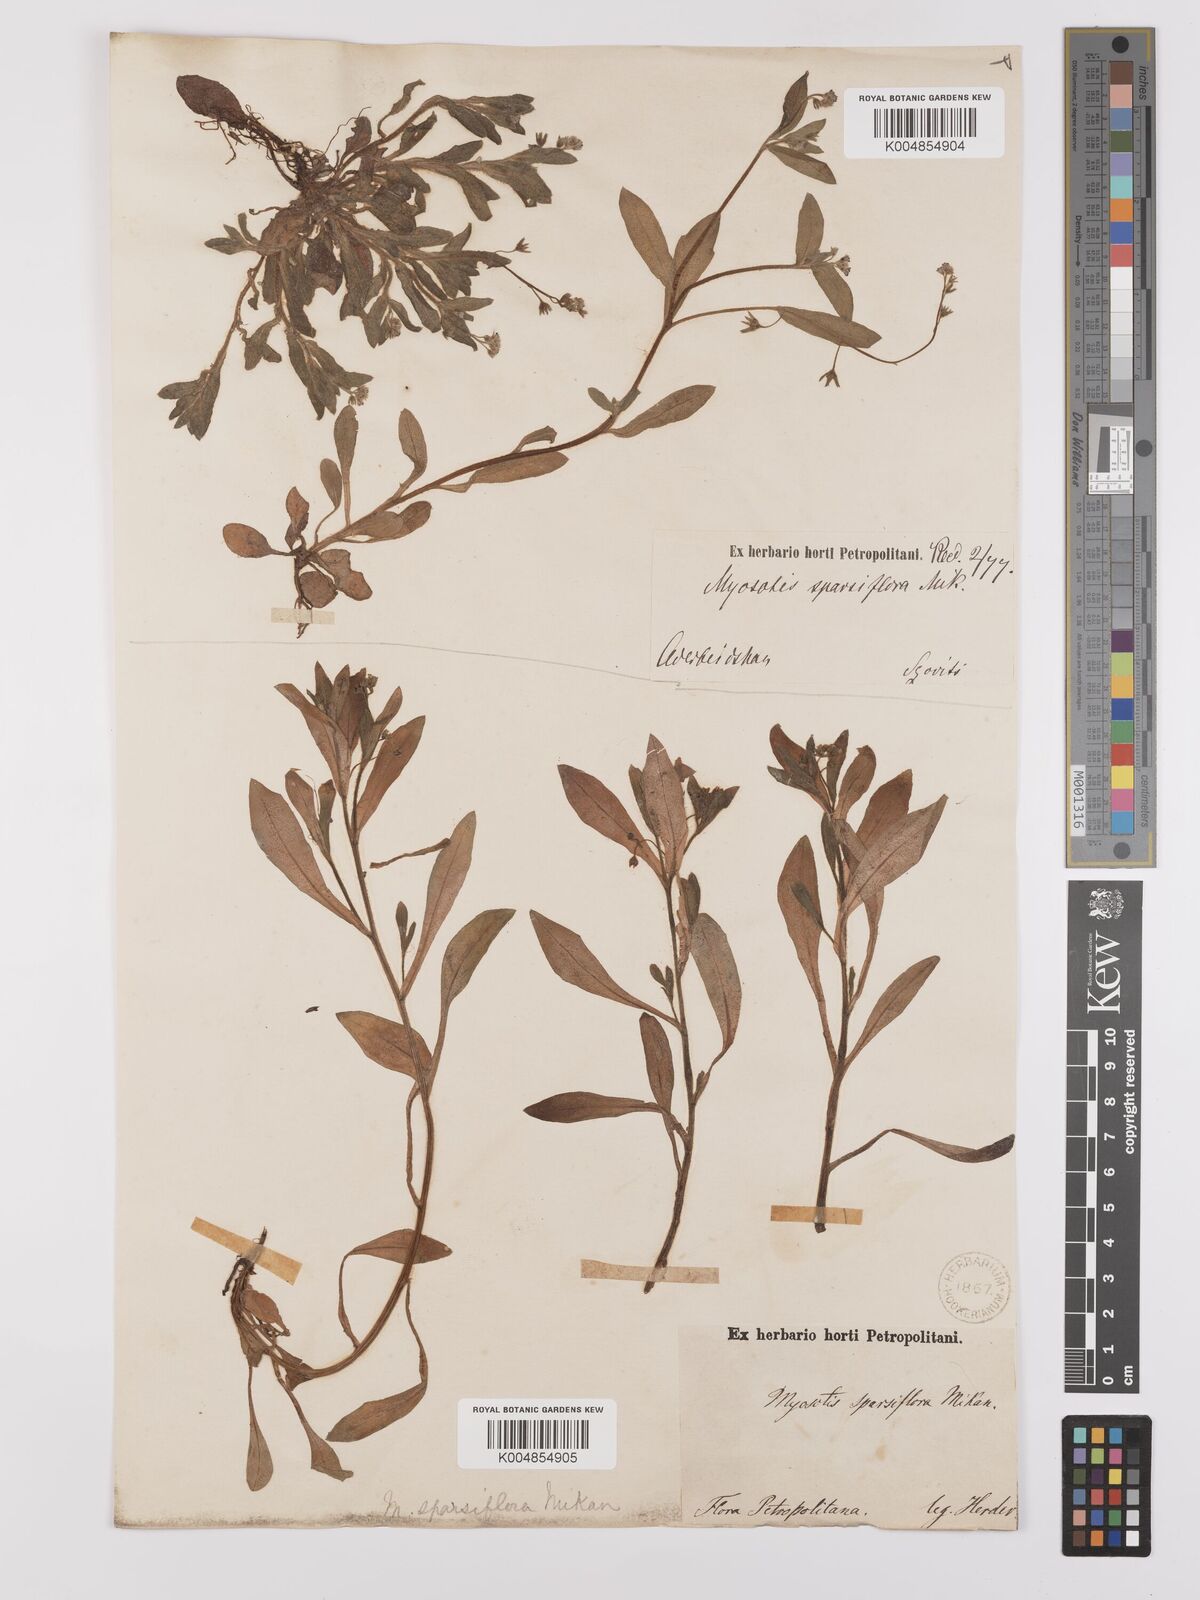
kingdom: Plantae
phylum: Tracheophyta
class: Magnoliopsida
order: Boraginales
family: Boraginaceae
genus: Myosotis
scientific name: Myosotis
